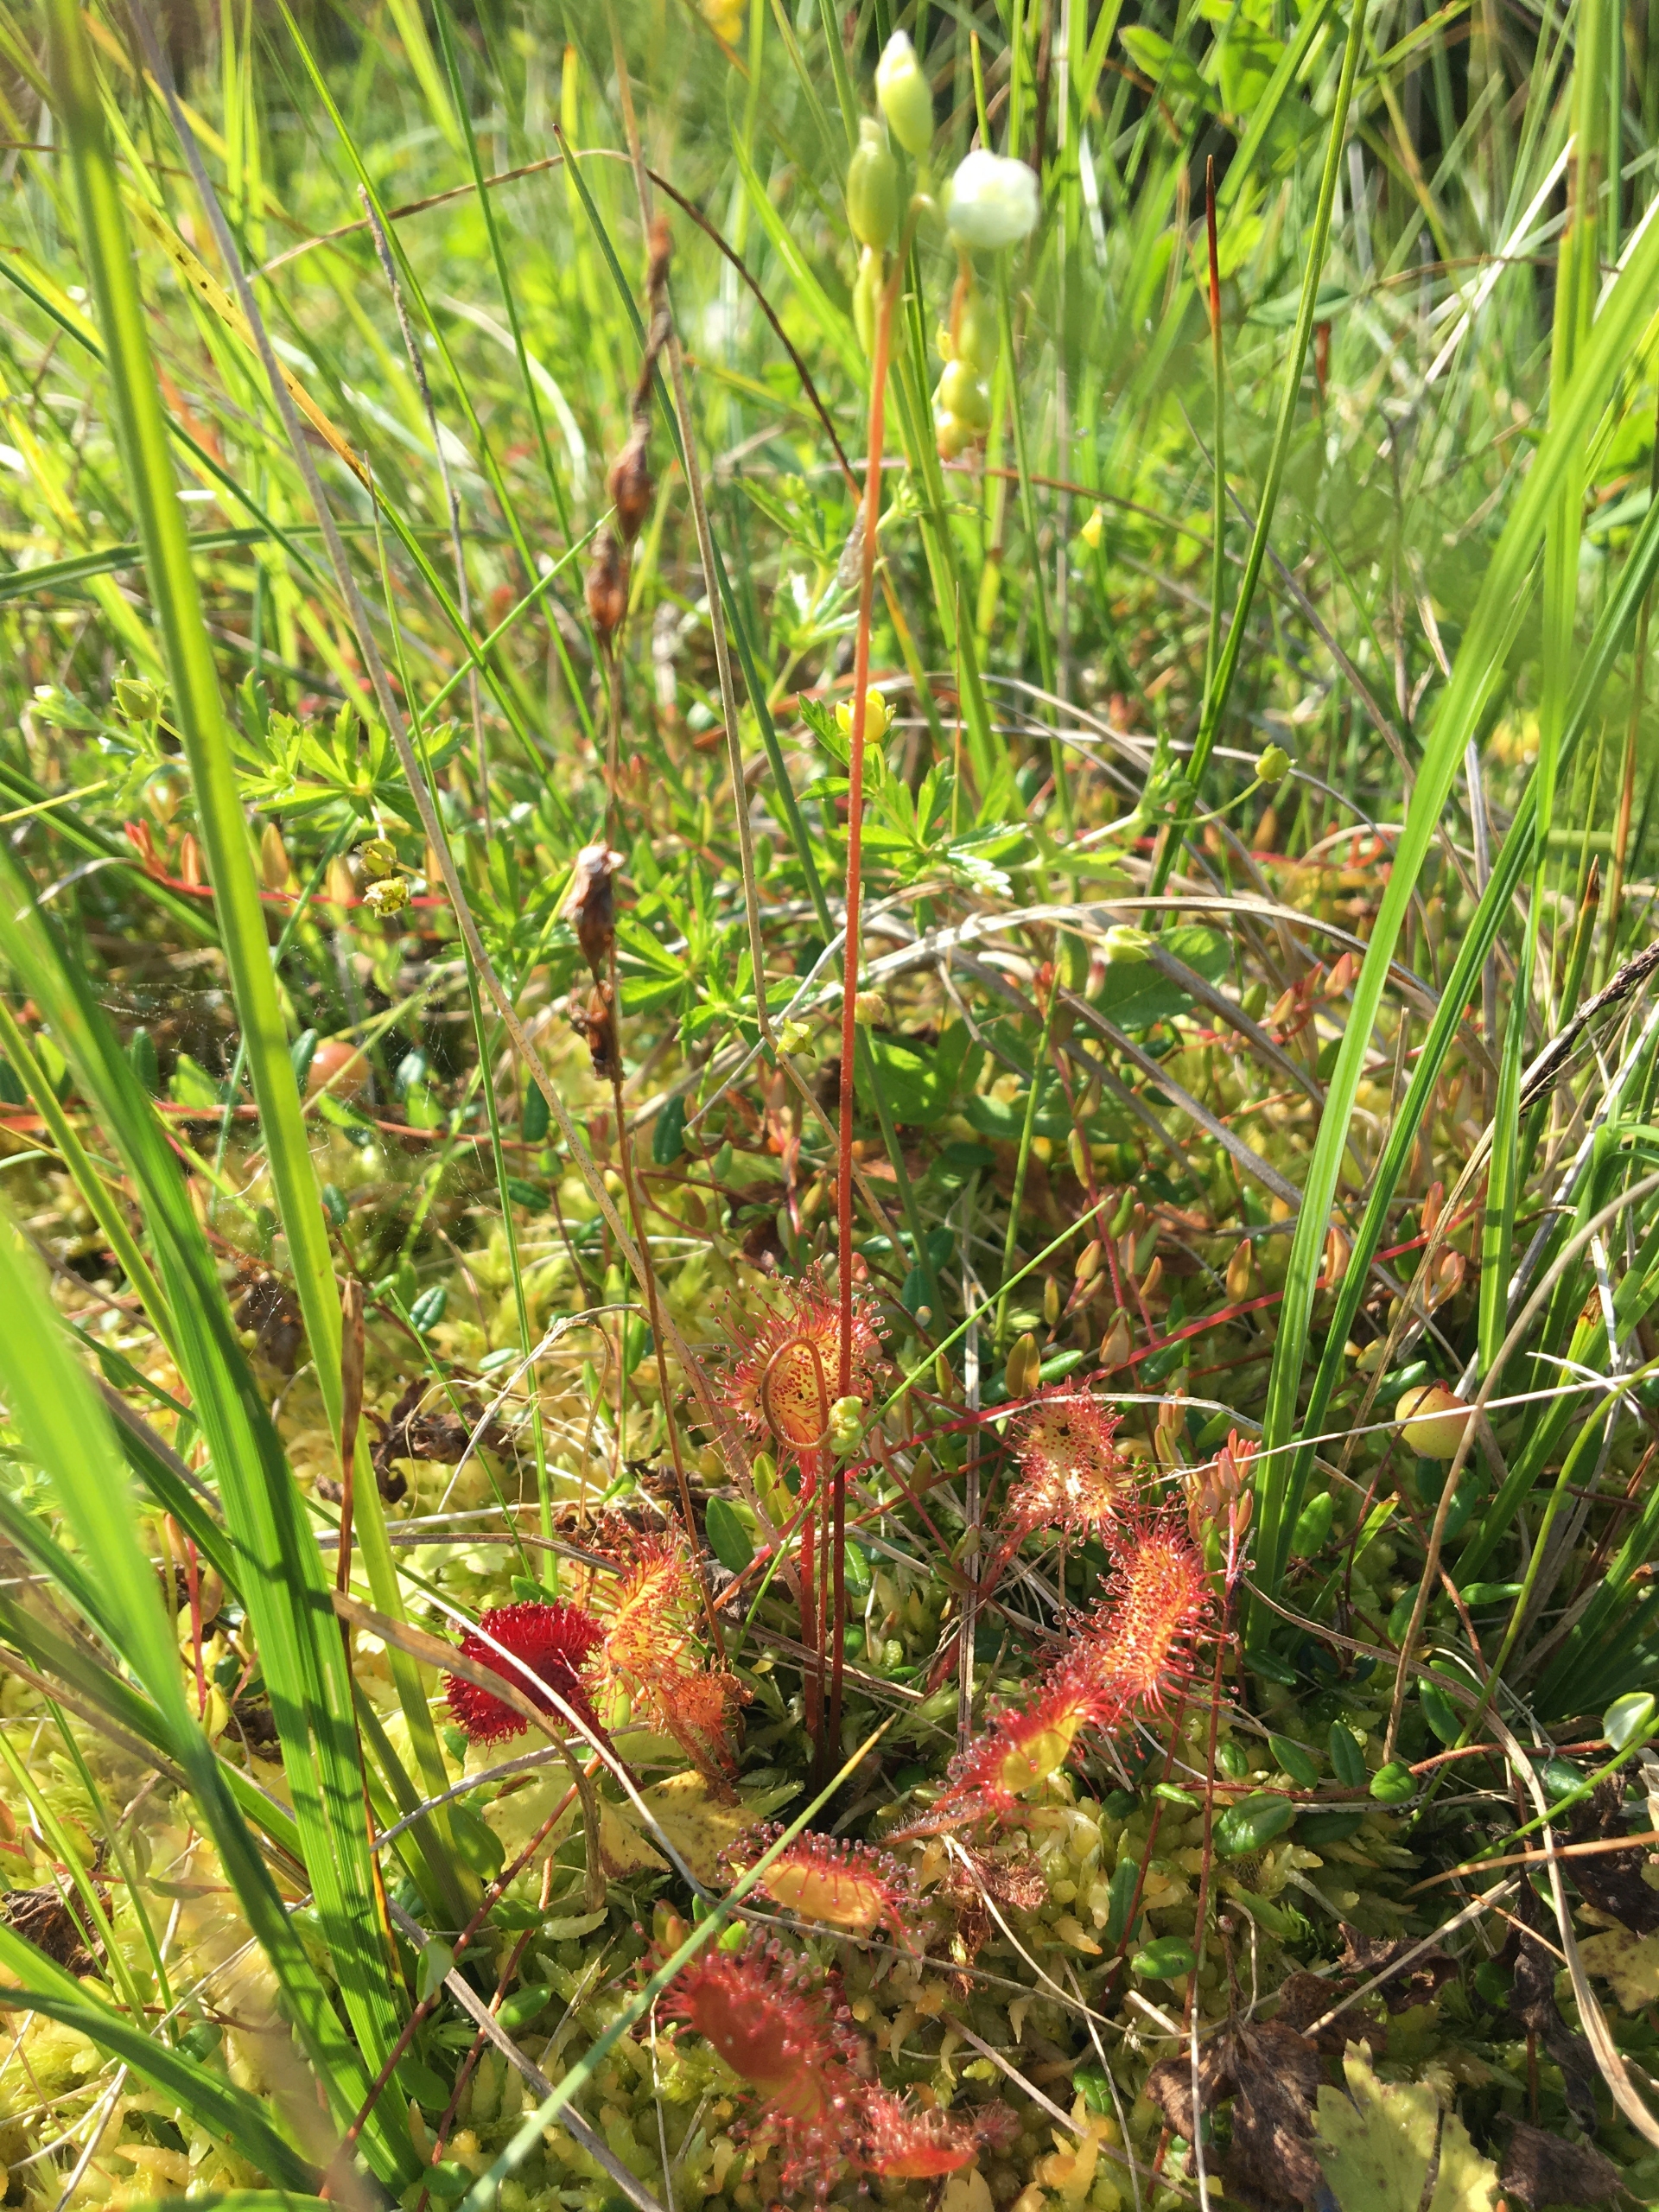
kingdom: Plantae
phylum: Tracheophyta
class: Magnoliopsida
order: Caryophyllales
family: Droseraceae
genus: Drosera
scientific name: Drosera rotundifolia
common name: Rundbladet soldug
